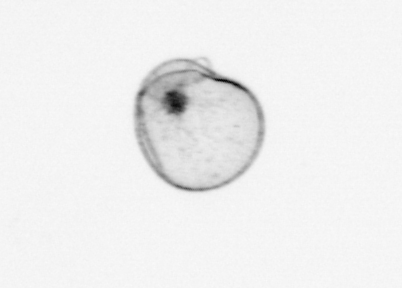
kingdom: Chromista
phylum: Myzozoa
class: Dinophyceae
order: Noctilucales
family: Noctilucaceae
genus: Noctiluca
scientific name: Noctiluca scintillans
